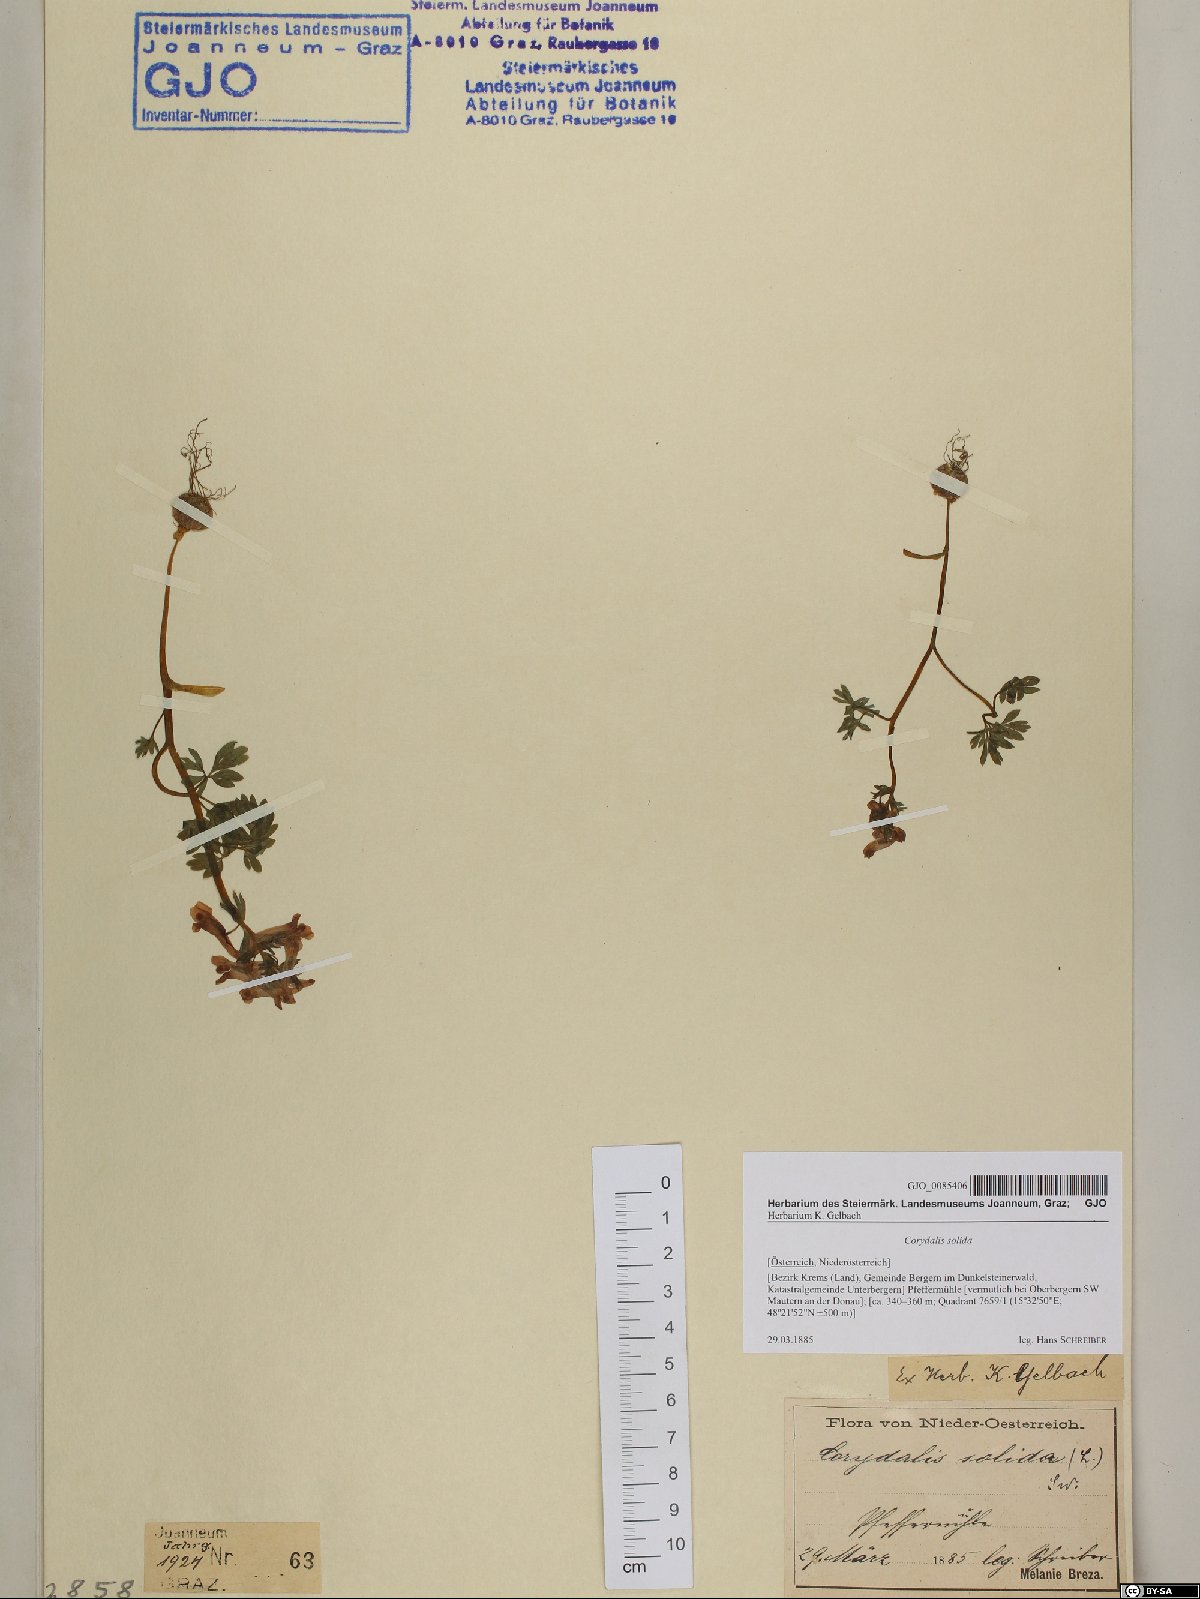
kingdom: Plantae
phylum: Tracheophyta
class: Magnoliopsida
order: Ranunculales
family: Papaveraceae
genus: Corydalis
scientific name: Corydalis solida
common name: Bird-in-a-bush
